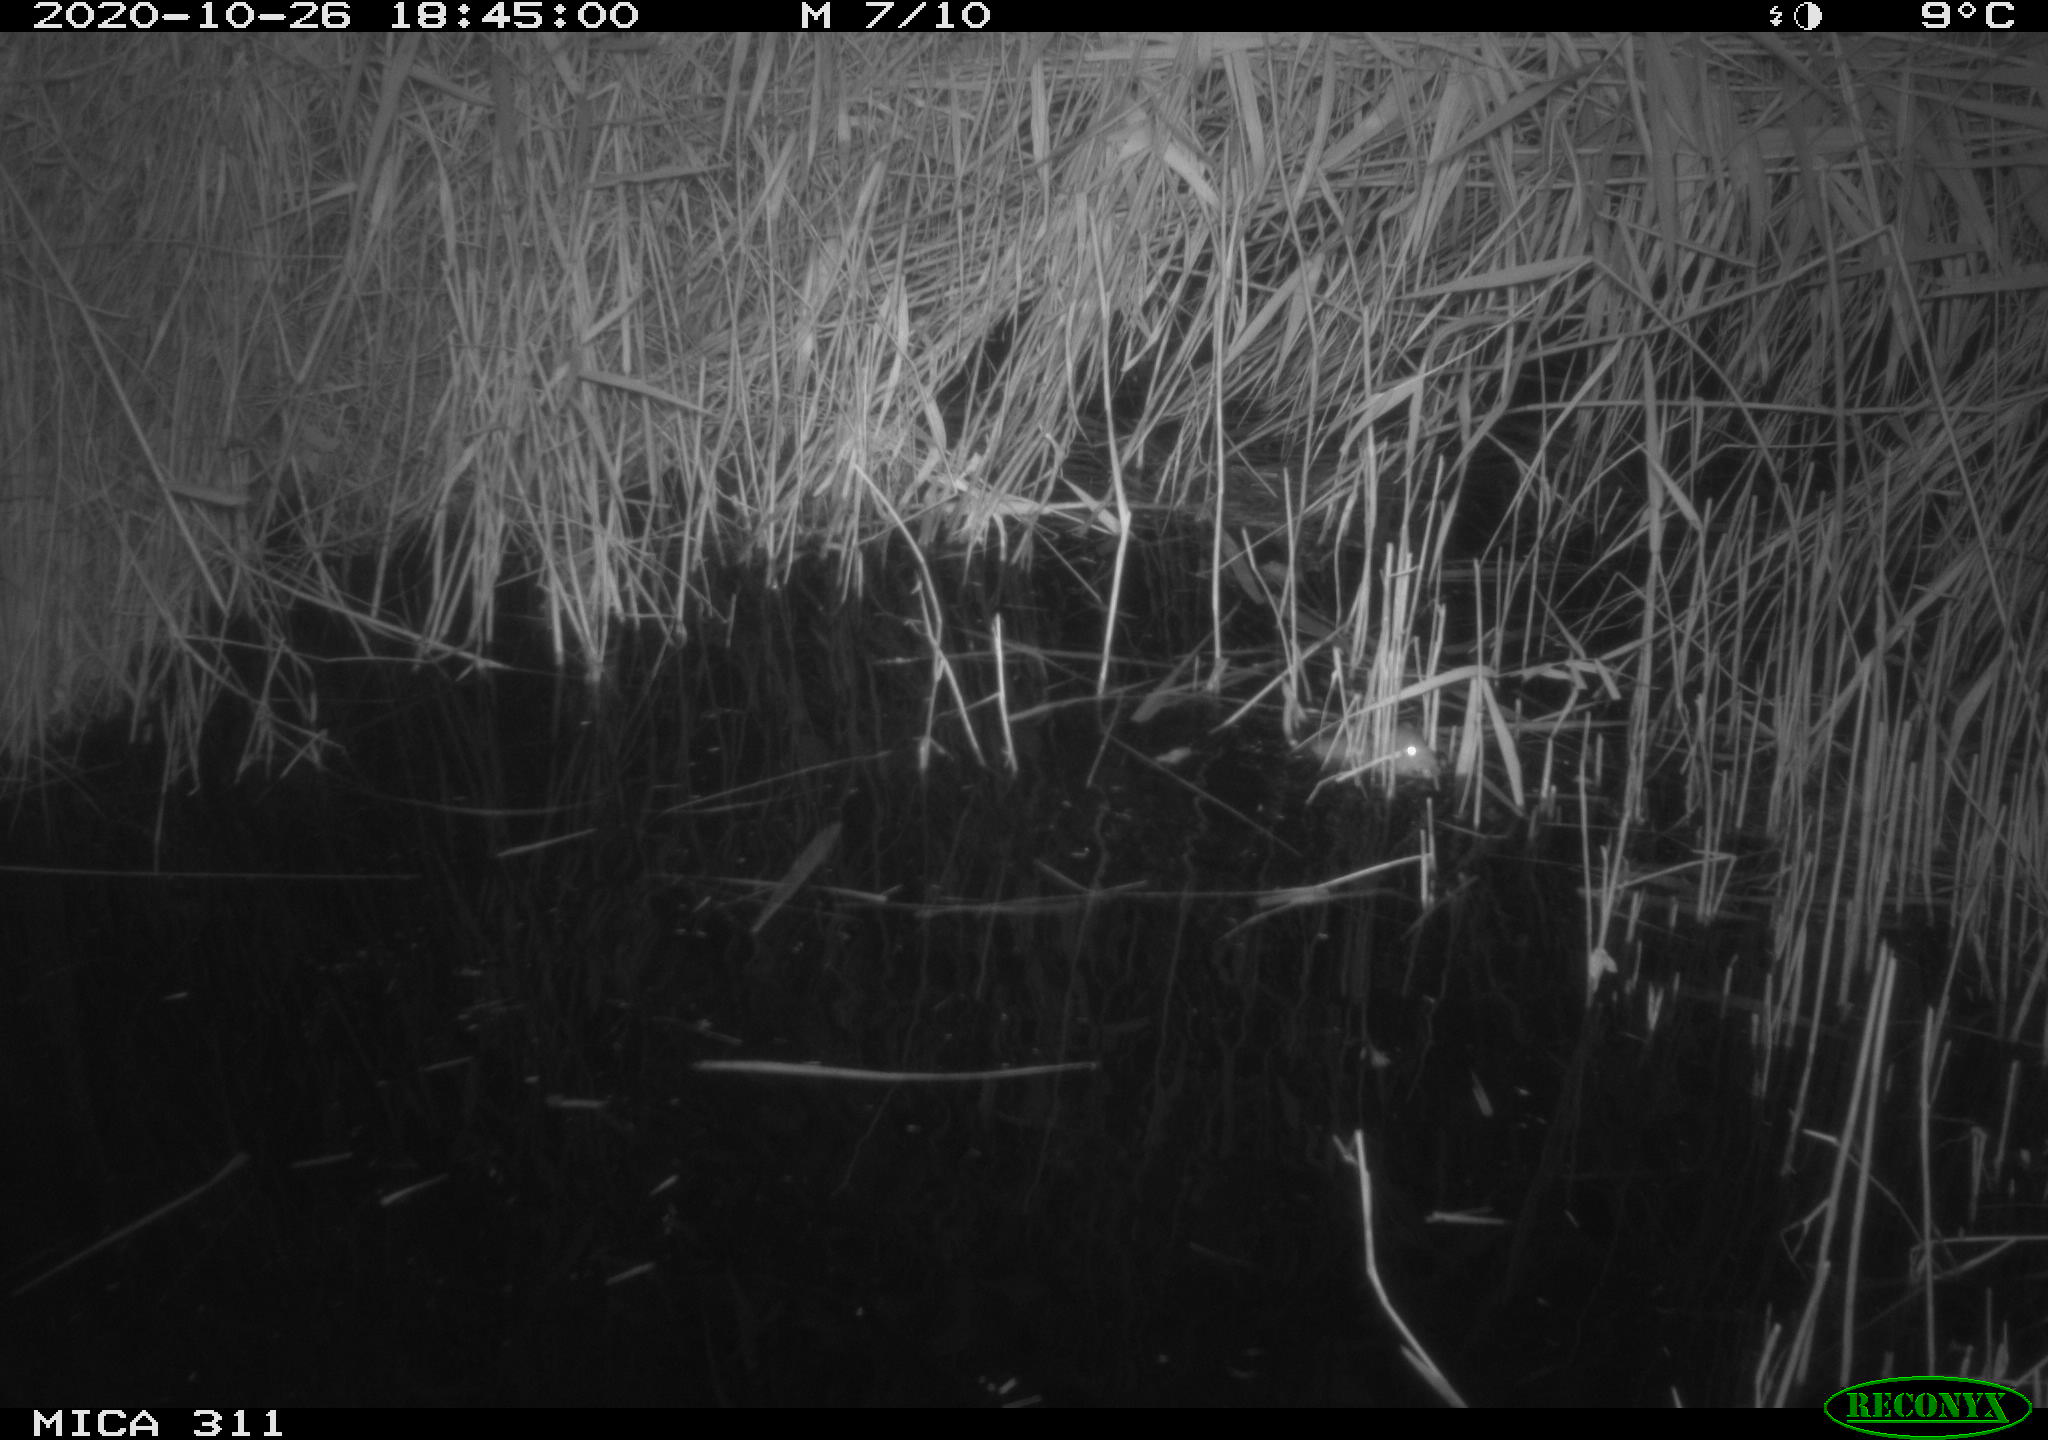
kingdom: Animalia
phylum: Chordata
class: Mammalia
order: Rodentia
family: Muridae
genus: Rattus
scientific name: Rattus norvegicus
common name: Brown rat
